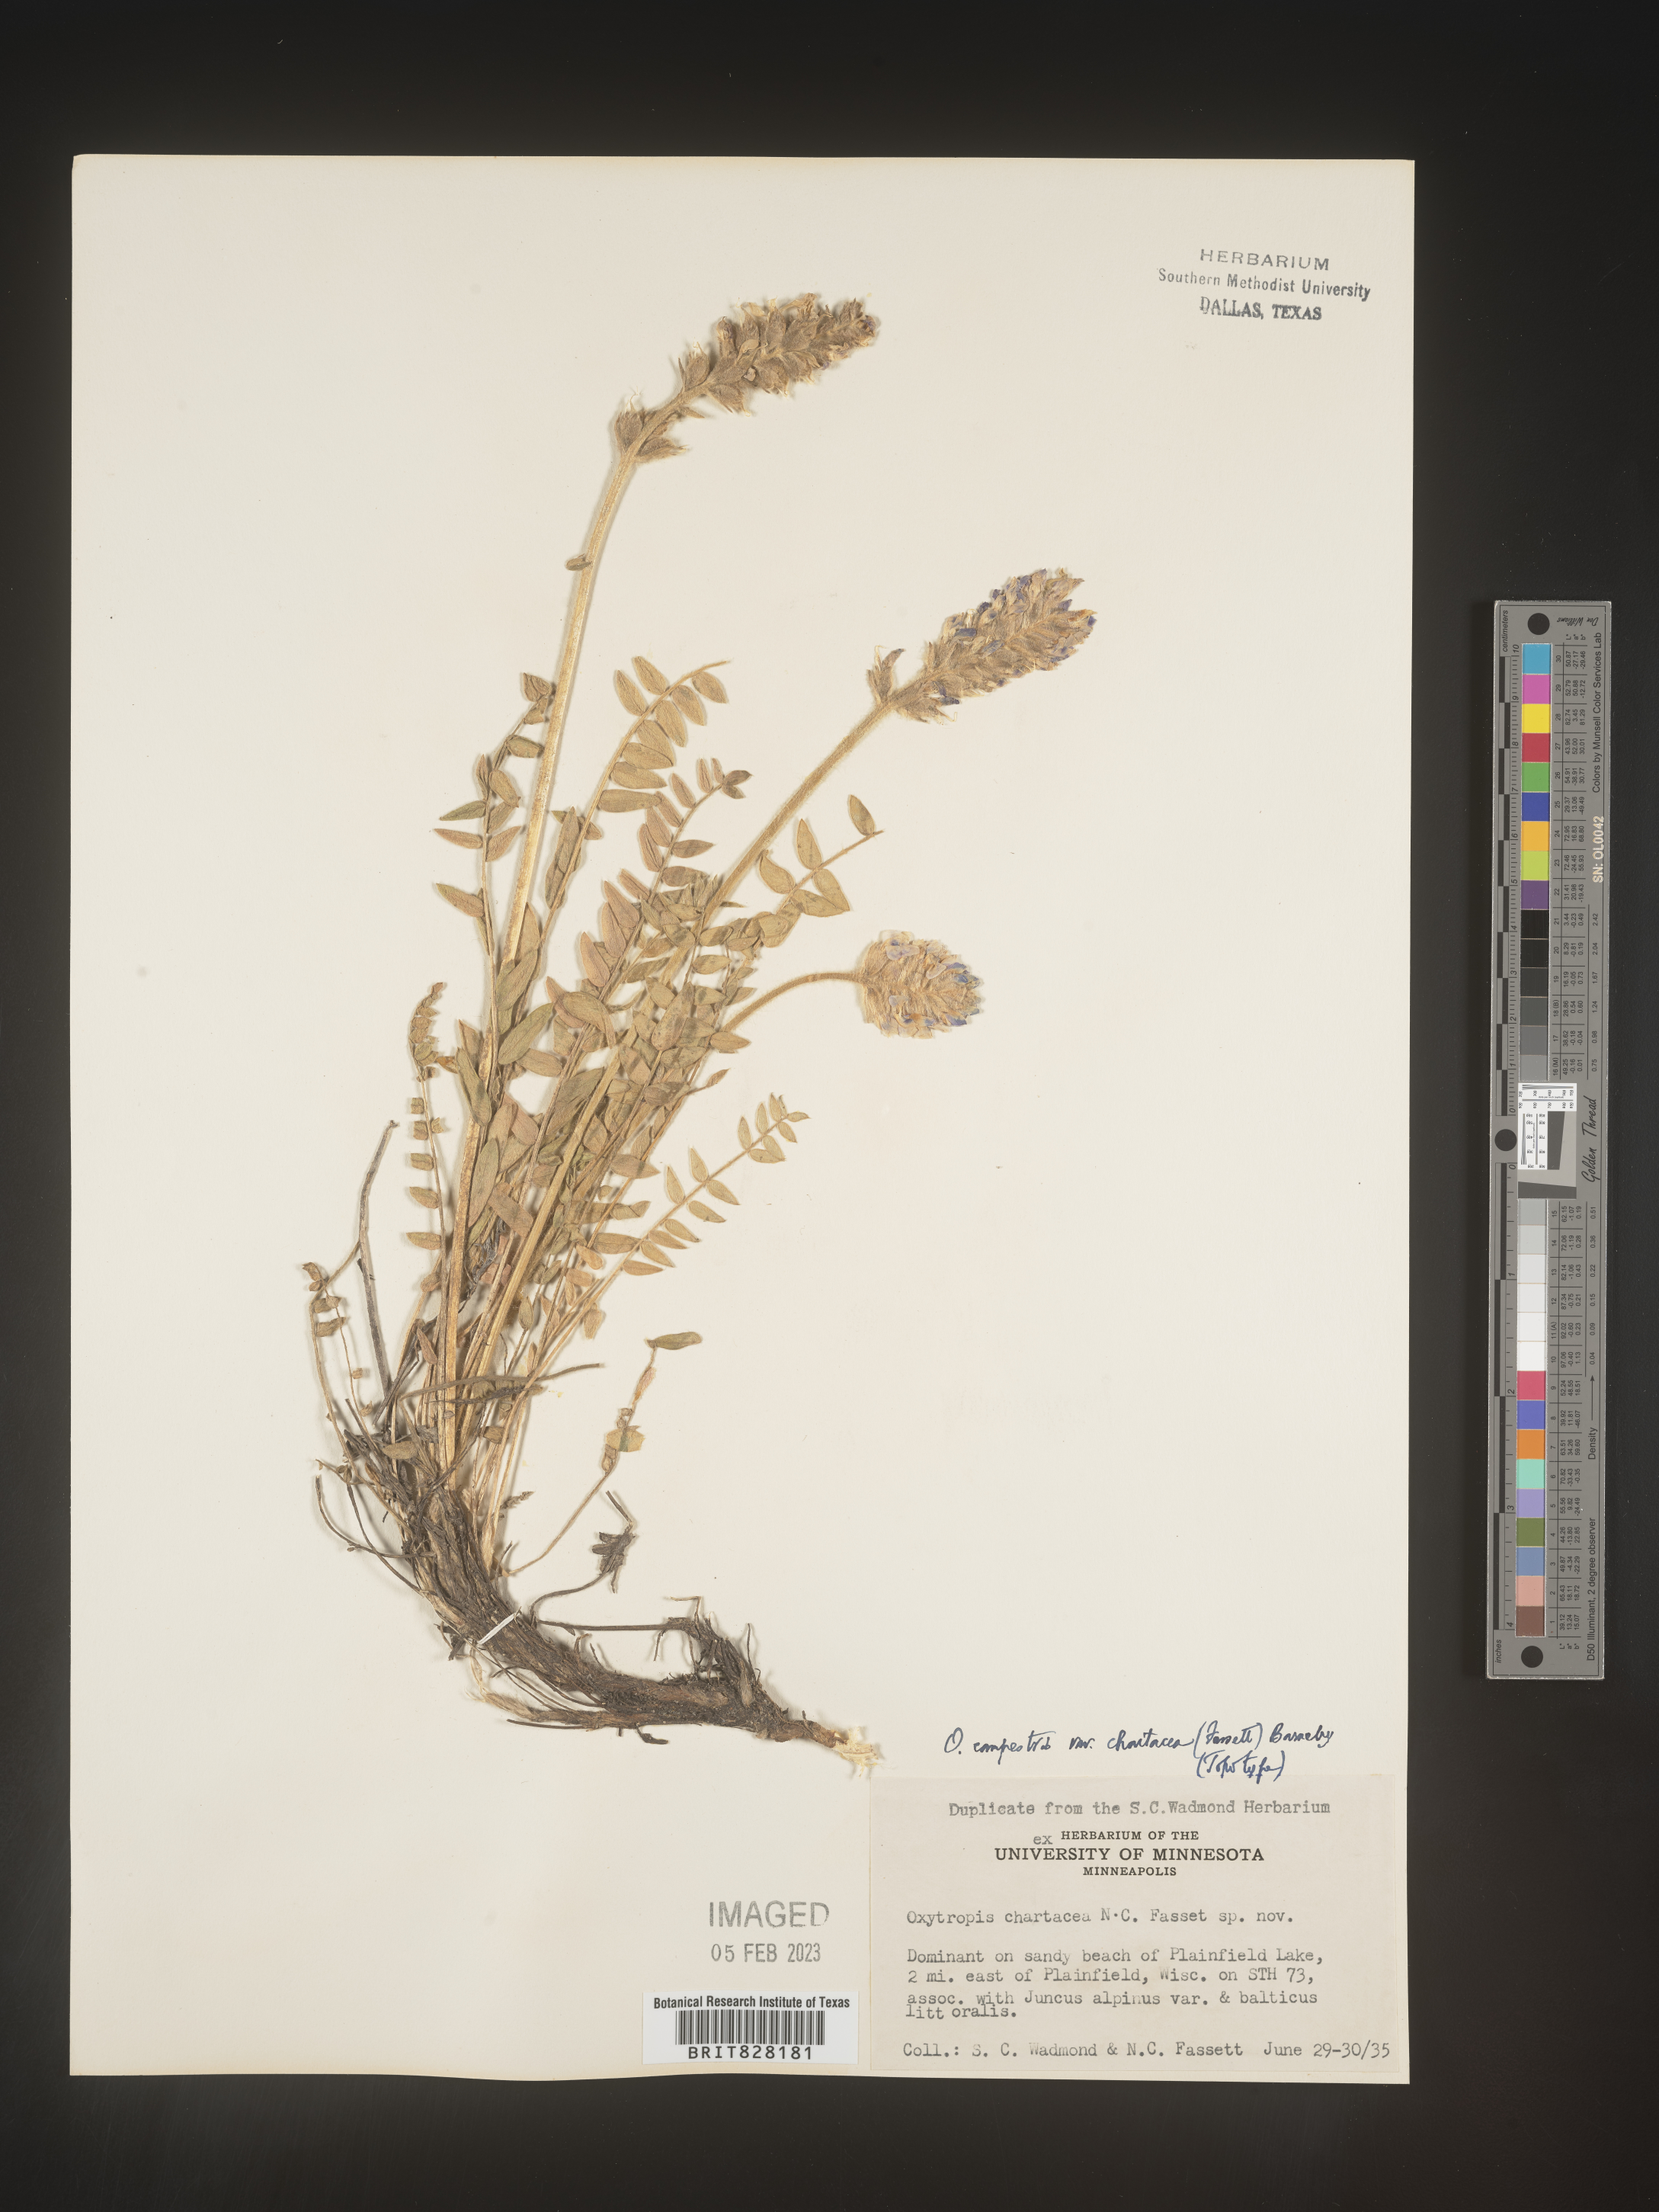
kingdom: Plantae
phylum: Tracheophyta
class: Magnoliopsida
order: Fabales
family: Fabaceae
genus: Oxytropis
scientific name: Oxytropis campestris
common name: Field locoweed
